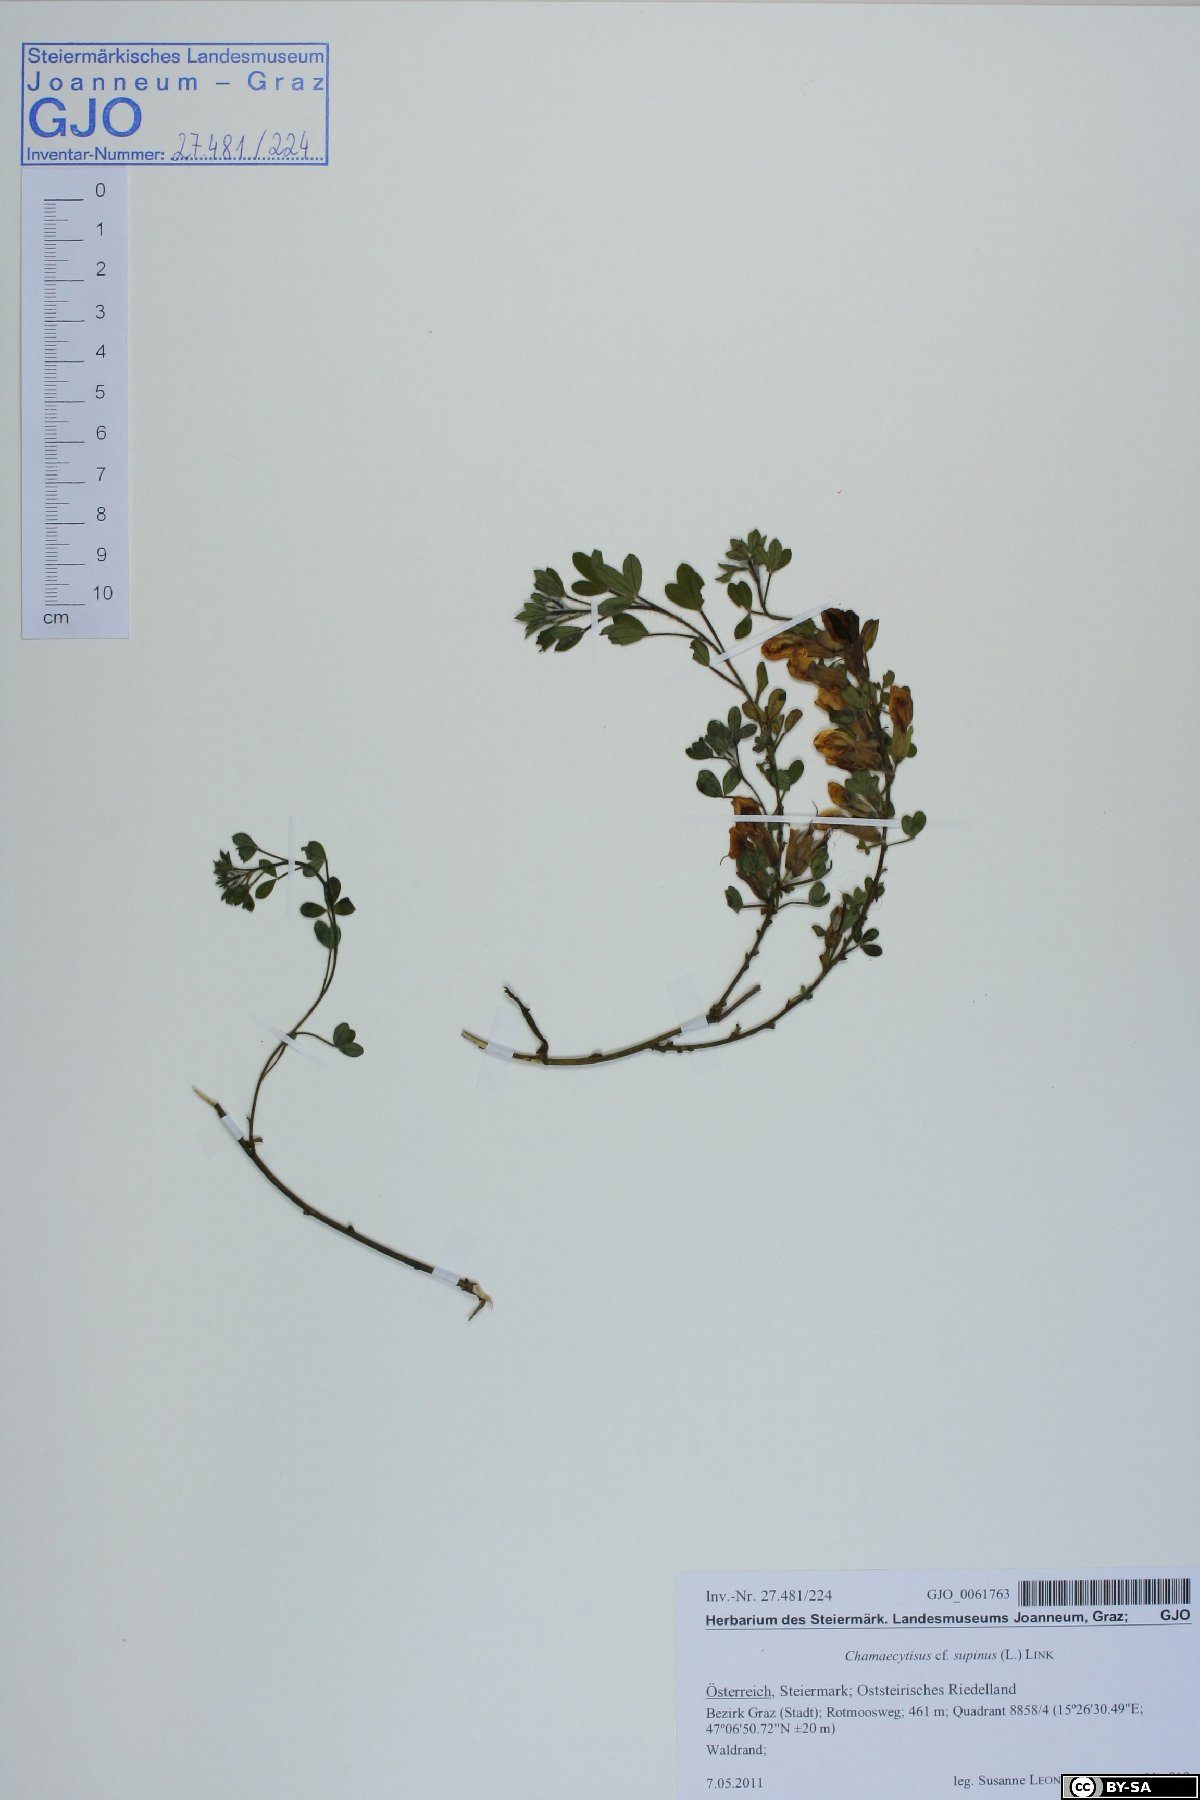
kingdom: Plantae
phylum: Tracheophyta
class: Magnoliopsida
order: Fabales
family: Fabaceae
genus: Chamaecytisus
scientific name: Chamaecytisus supinus
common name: Clustered broom
